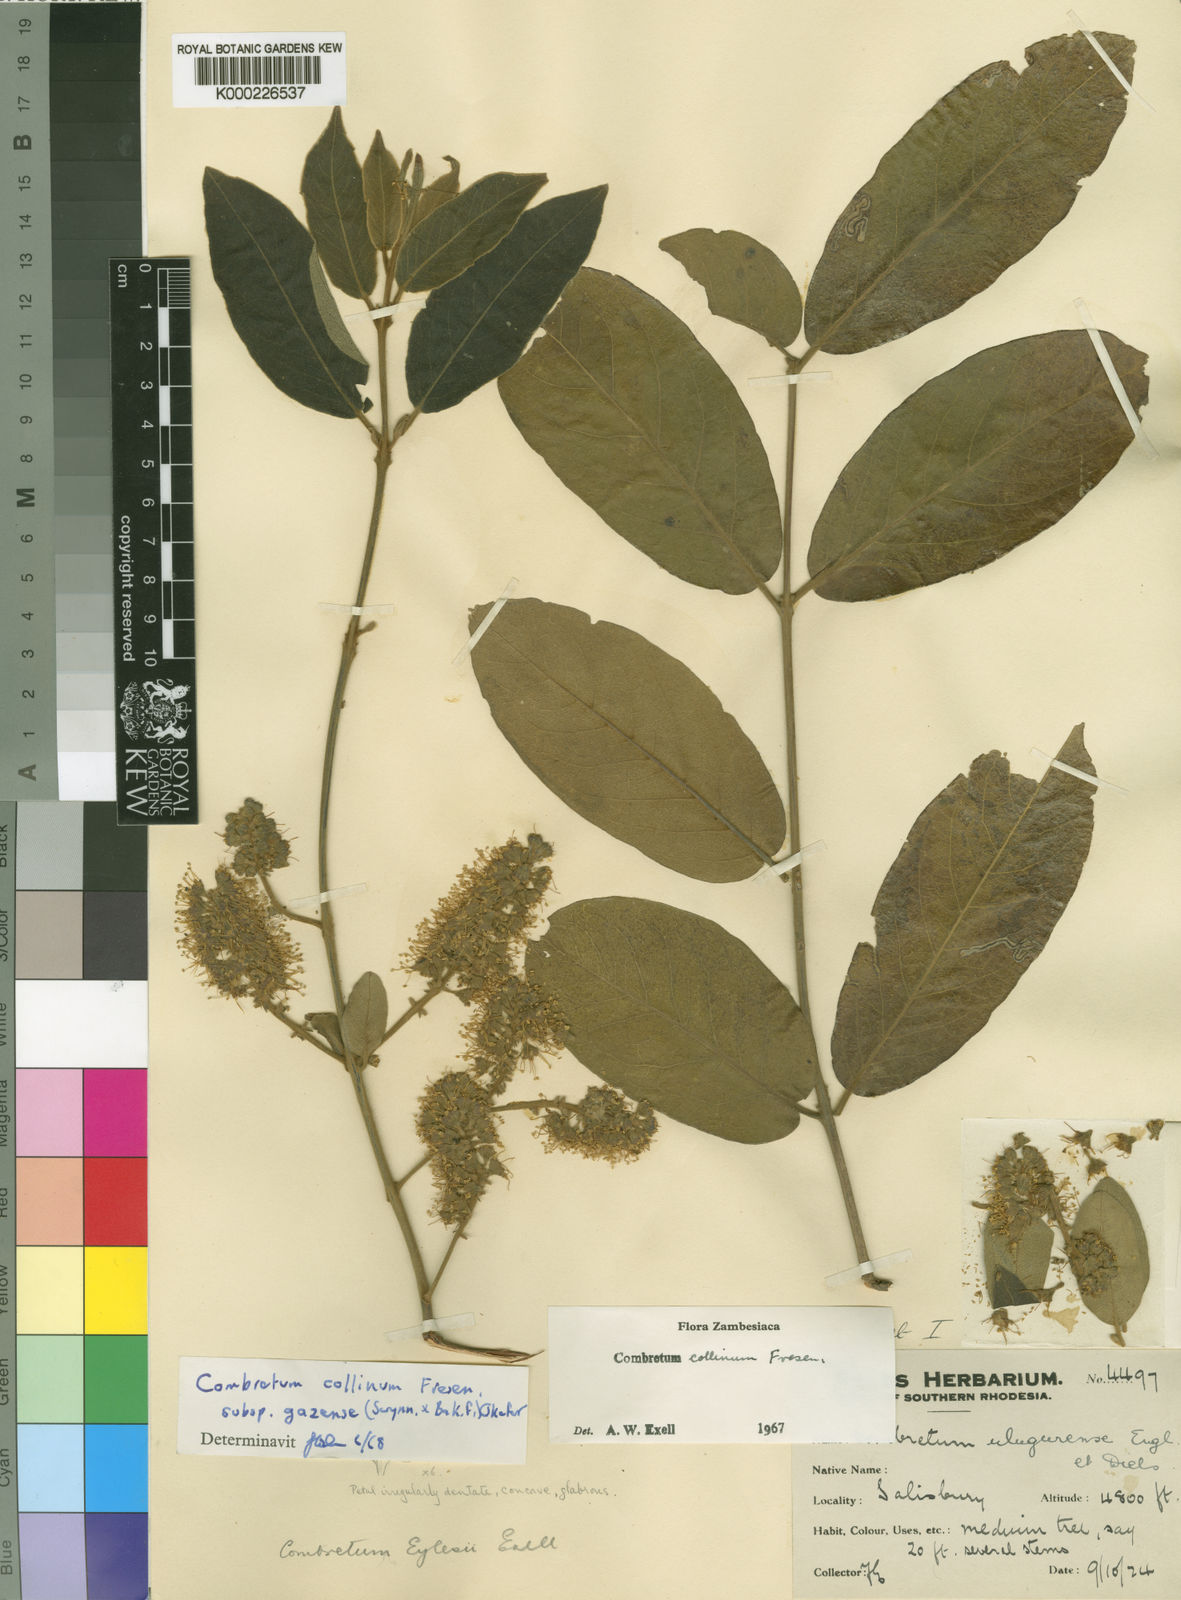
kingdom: Plantae
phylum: Tracheophyta
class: Magnoliopsida
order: Myrtales
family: Combretaceae
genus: Combretum
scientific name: Combretum collinum
